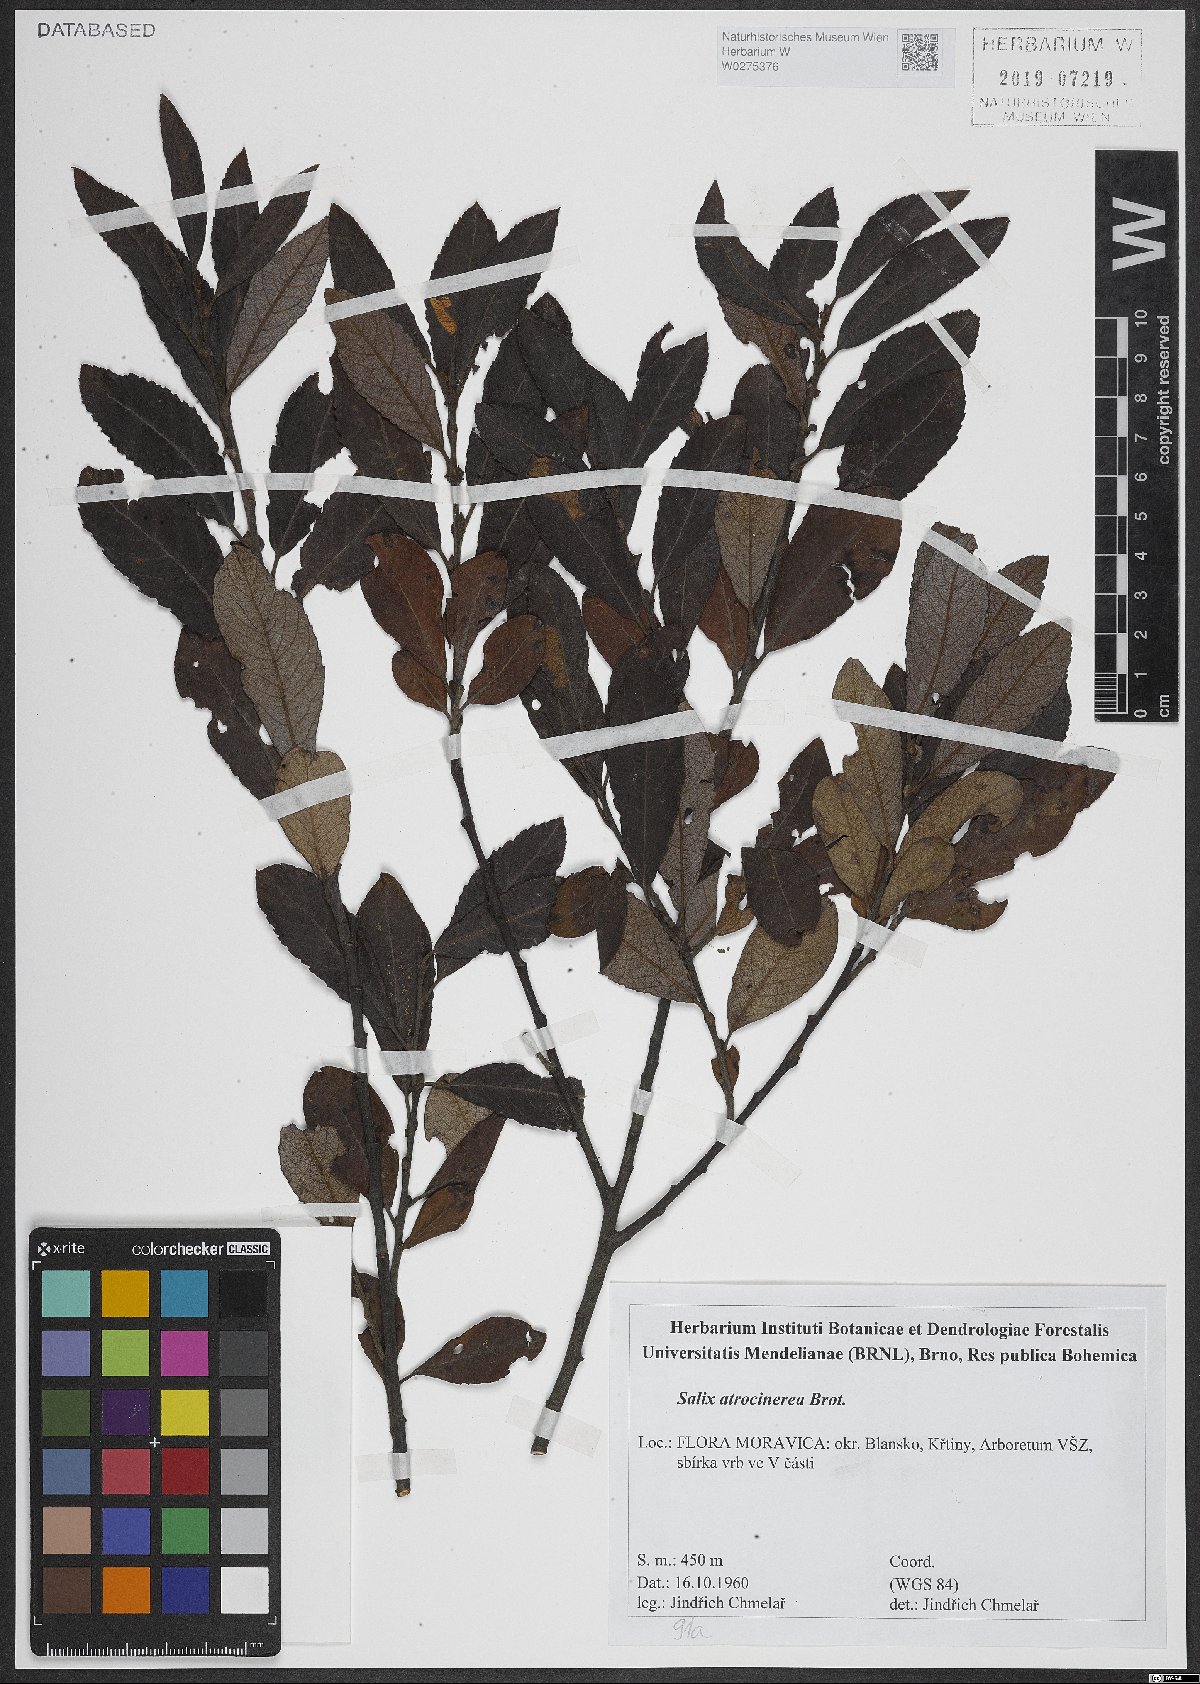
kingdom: Plantae
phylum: Tracheophyta
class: Magnoliopsida
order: Malpighiales
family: Salicaceae
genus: Salix
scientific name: Salix atrocinerea
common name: Rusty willow
